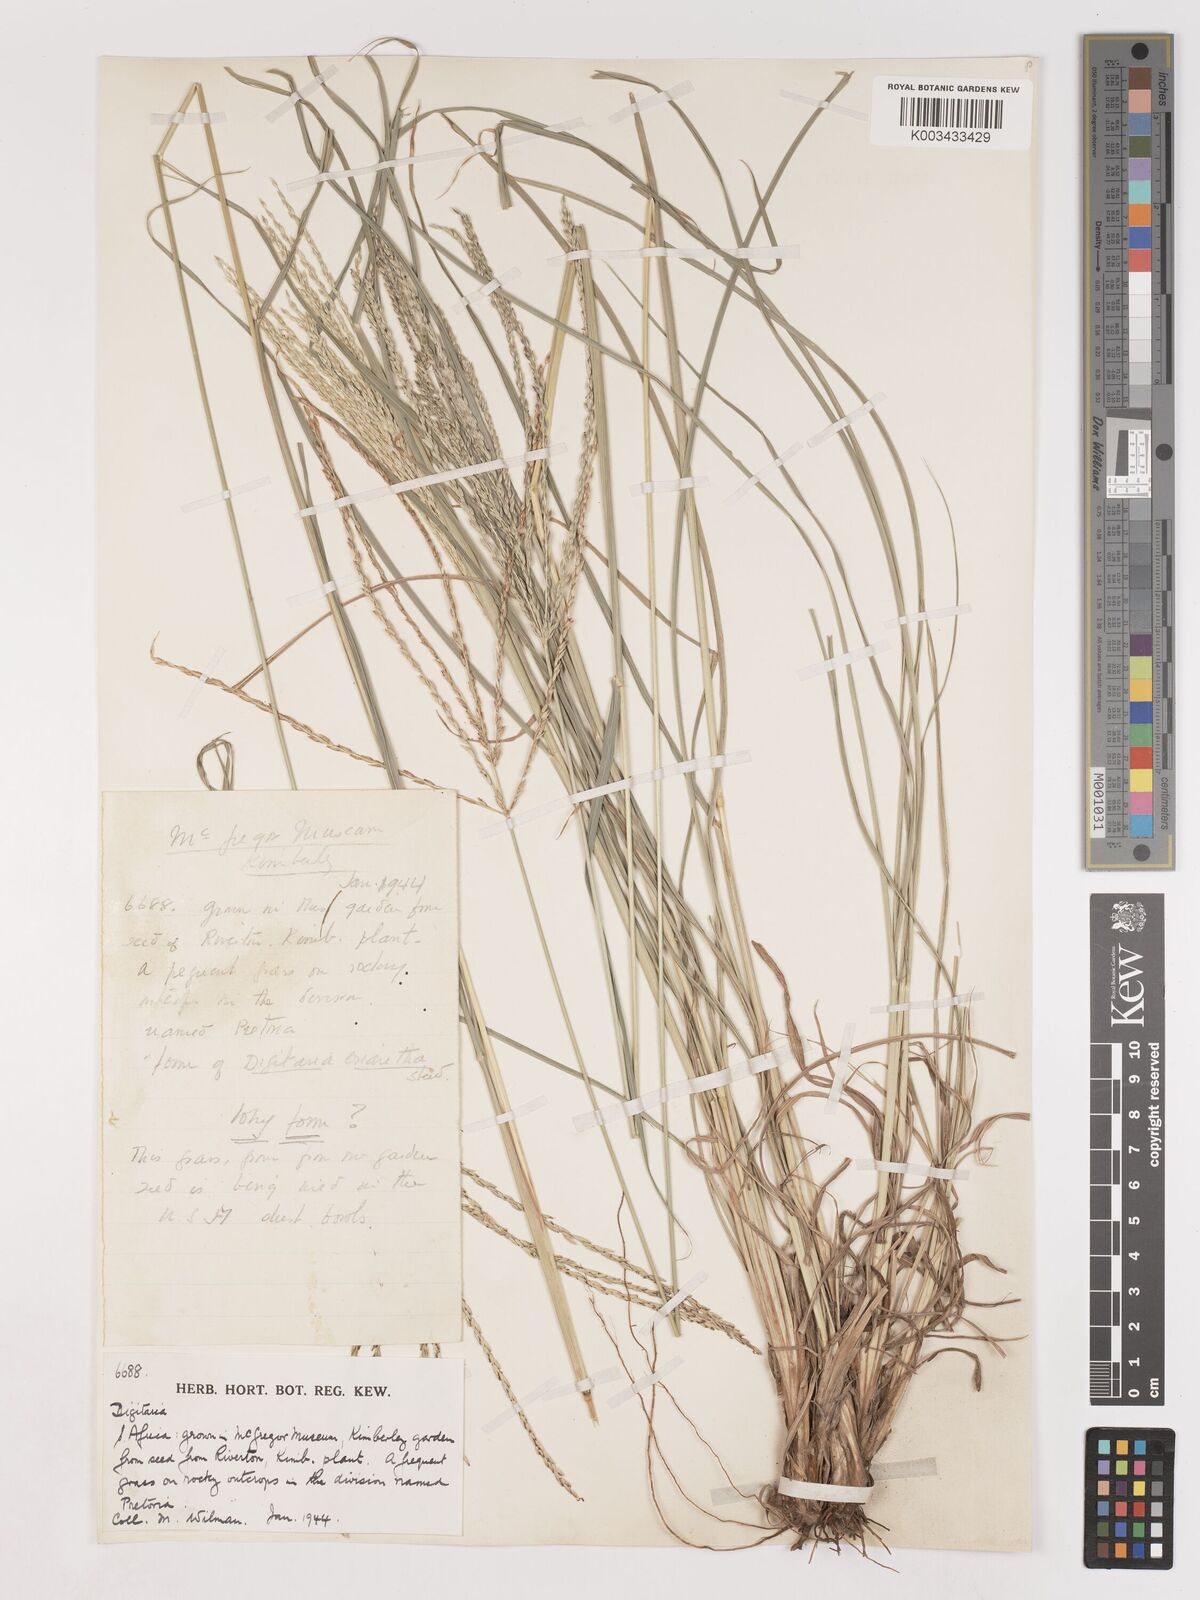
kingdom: Plantae
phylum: Tracheophyta
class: Liliopsida
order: Poales
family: Poaceae
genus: Digitaria
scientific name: Digitaria eriantha
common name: Digitgrass
